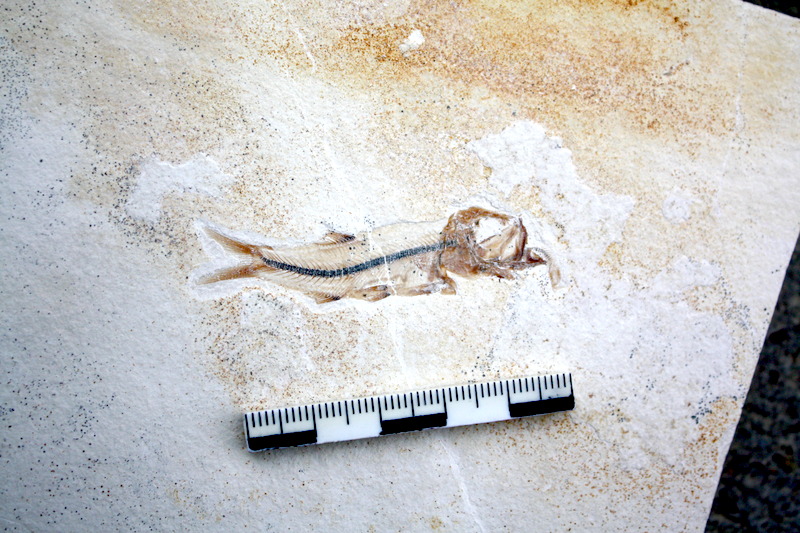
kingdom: Animalia
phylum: Chordata
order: Salmoniformes
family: Orthogonikleithridae
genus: Orthogonikleithrus
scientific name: Orthogonikleithrus hoelli
